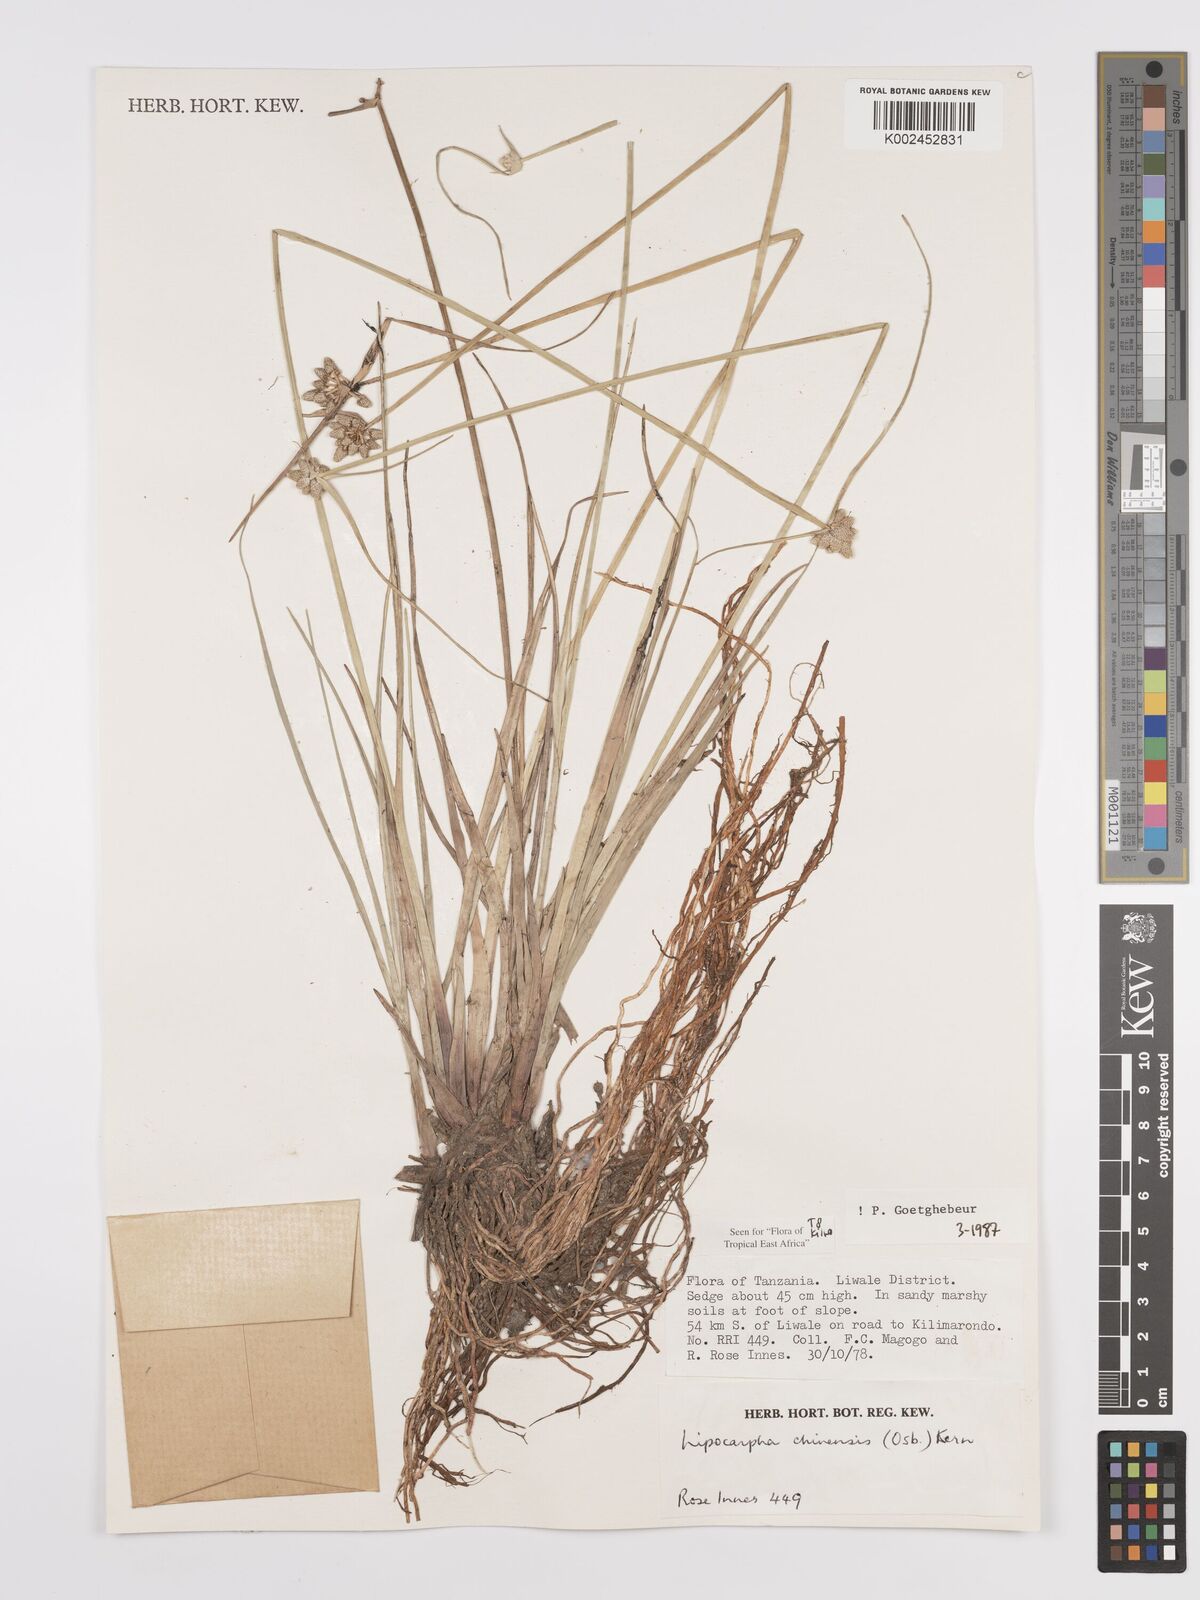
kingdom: Plantae
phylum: Tracheophyta
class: Liliopsida
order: Poales
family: Cyperaceae
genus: Cyperus
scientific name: Cyperus
